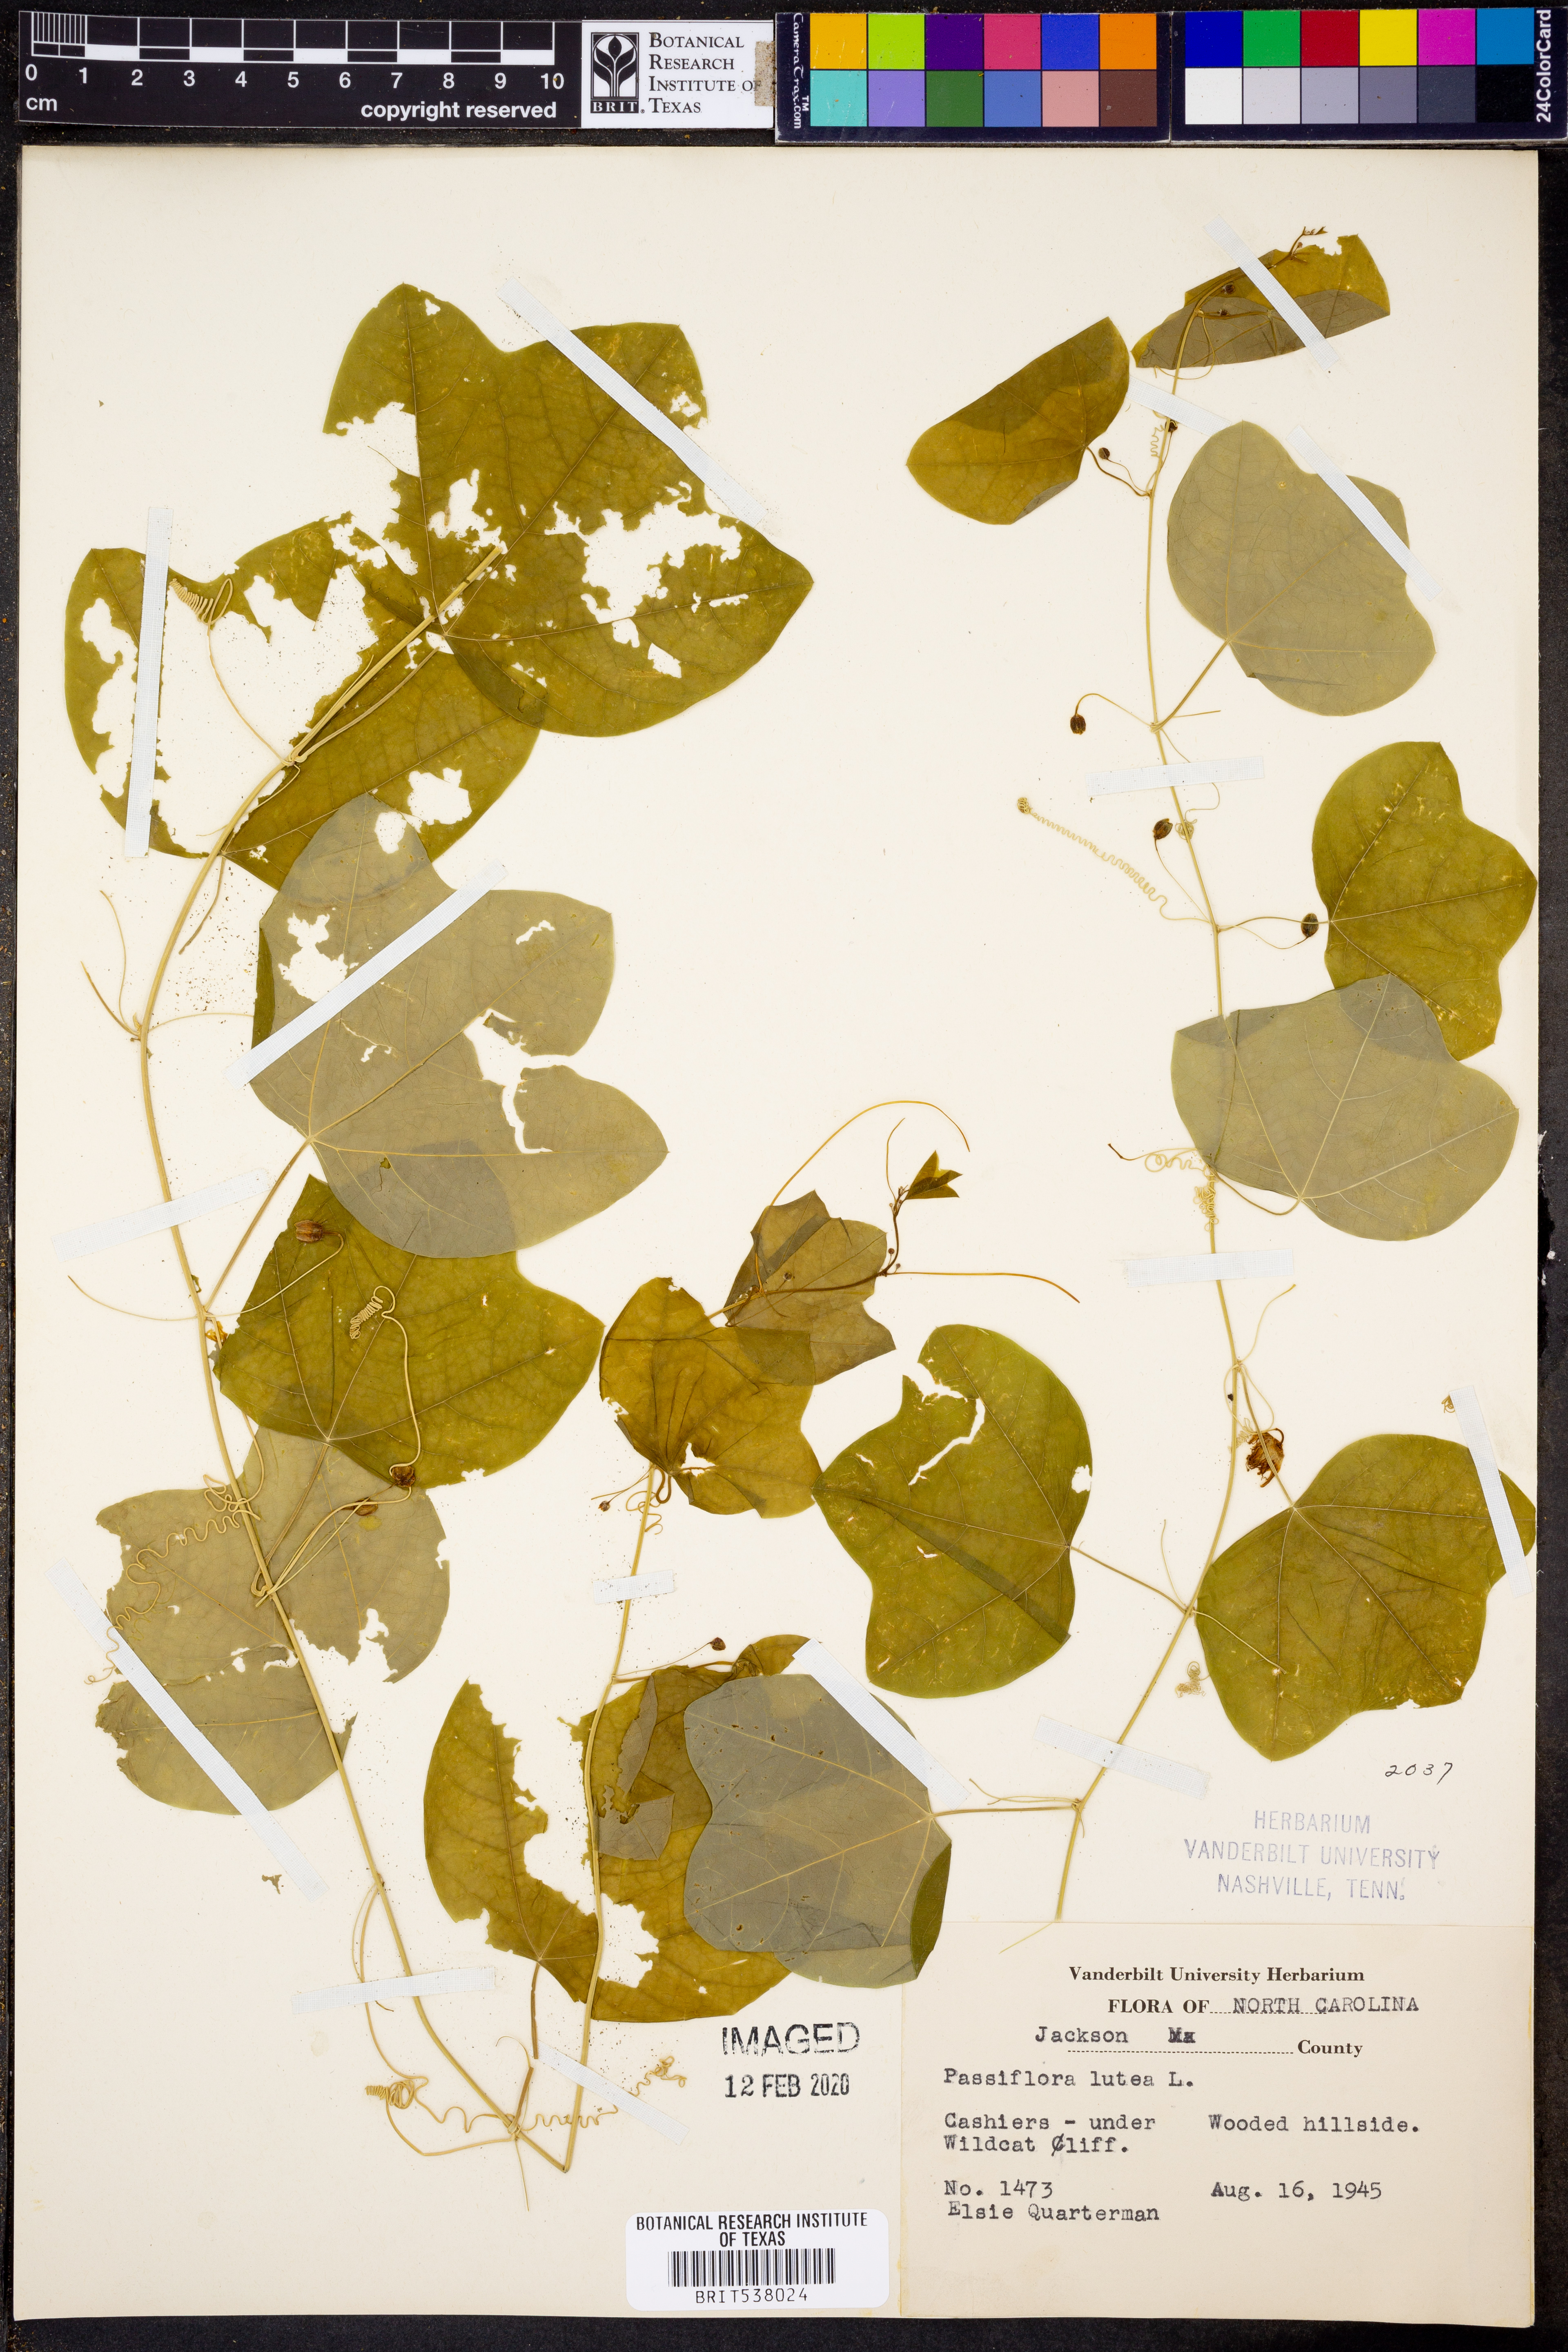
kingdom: Plantae
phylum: Tracheophyta
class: Magnoliopsida
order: Malpighiales
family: Passifloraceae
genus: Passiflora
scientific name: Passiflora lutea
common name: Yellow passionflower
